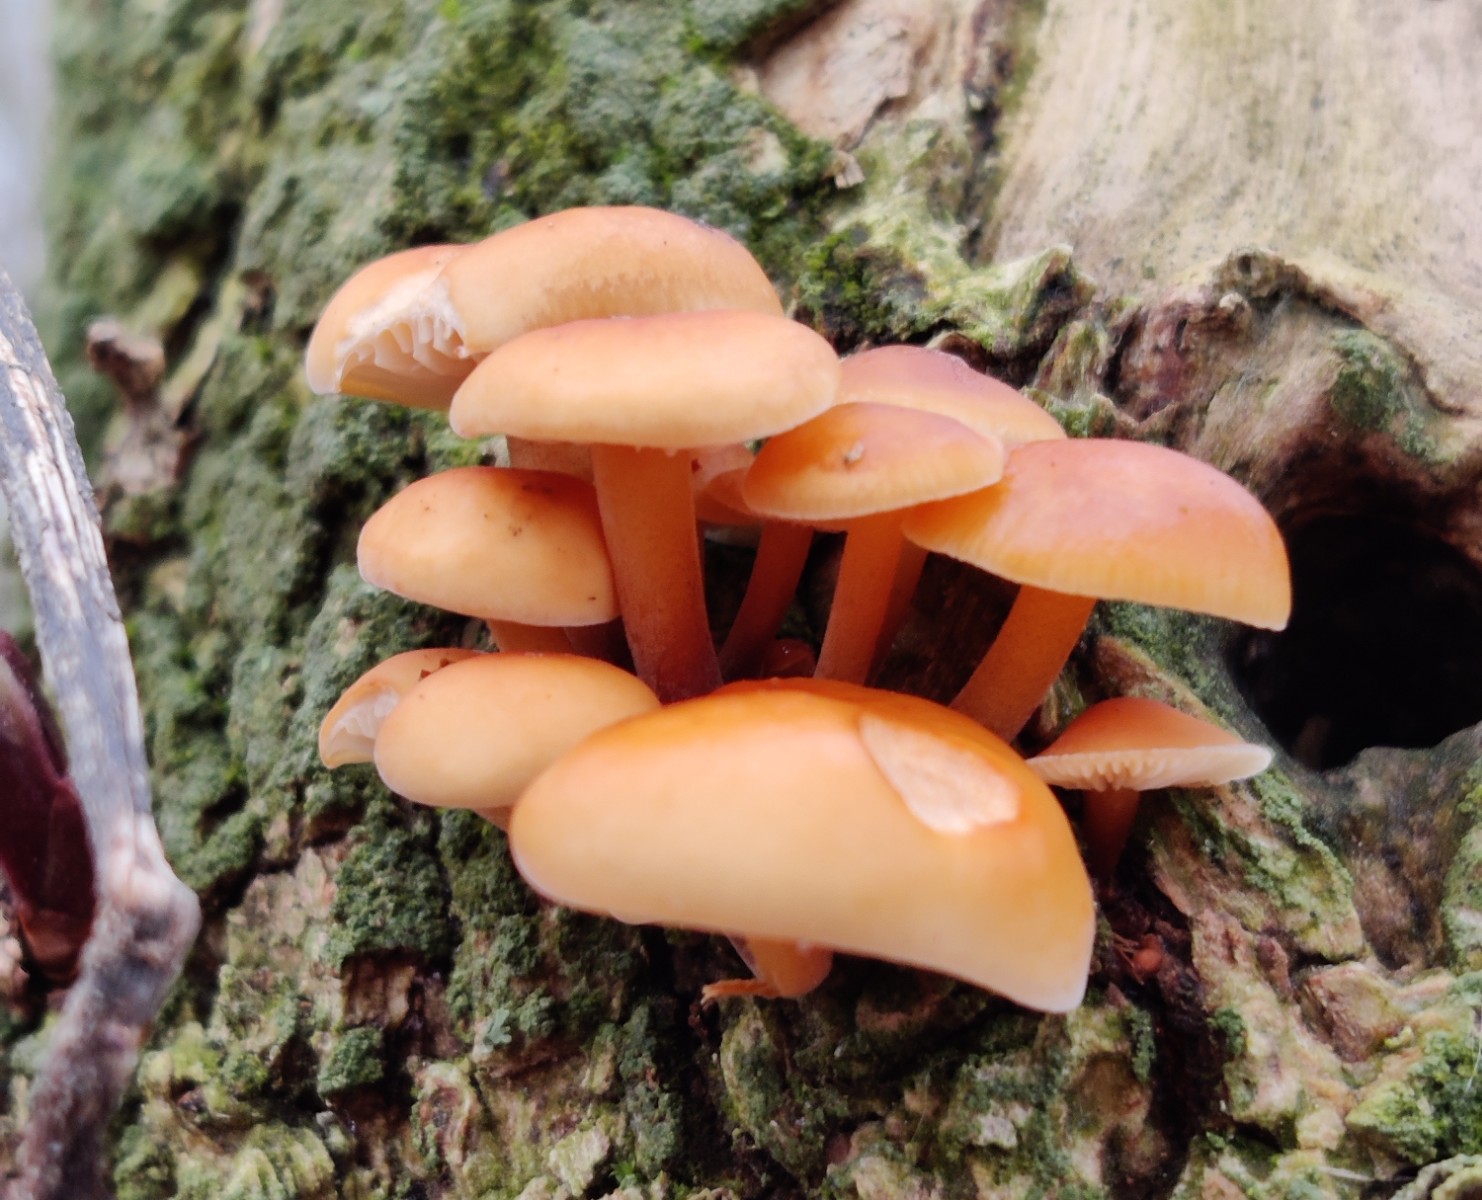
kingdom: Fungi
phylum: Basidiomycota
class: Agaricomycetes
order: Agaricales
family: Physalacriaceae
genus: Flammulina
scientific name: Flammulina velutipes
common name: gul fløjlsfod
